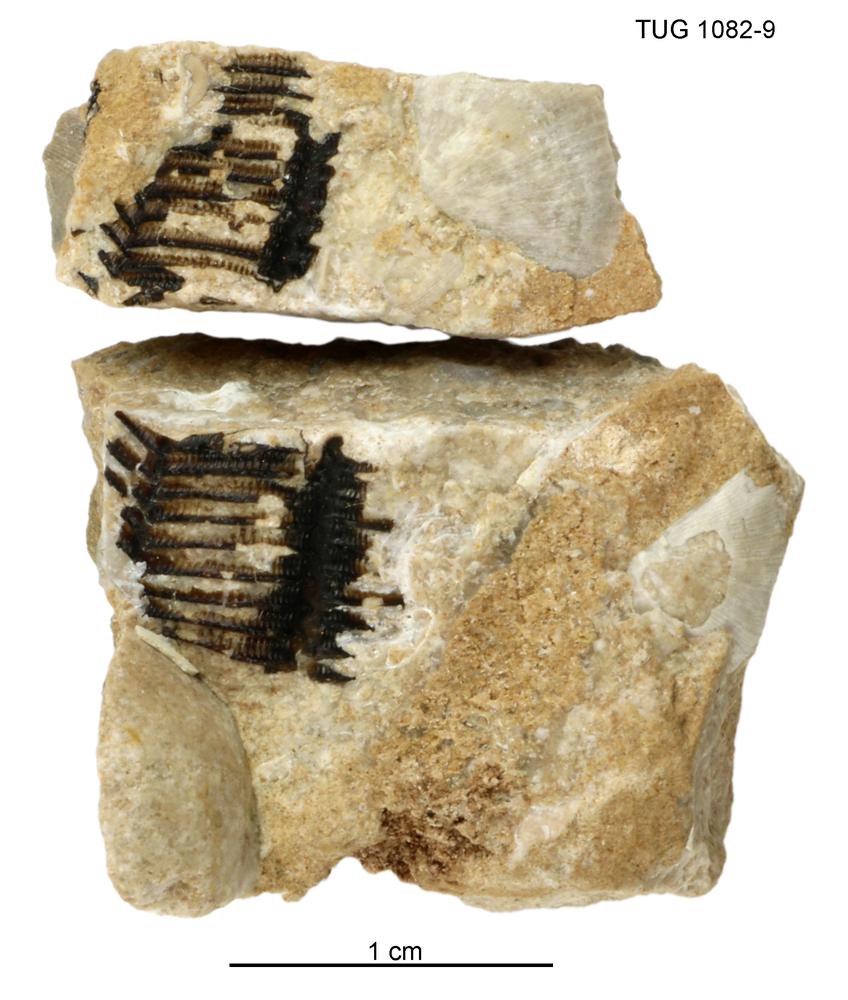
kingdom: Animalia
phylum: Cnidaria
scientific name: Cnidaria
